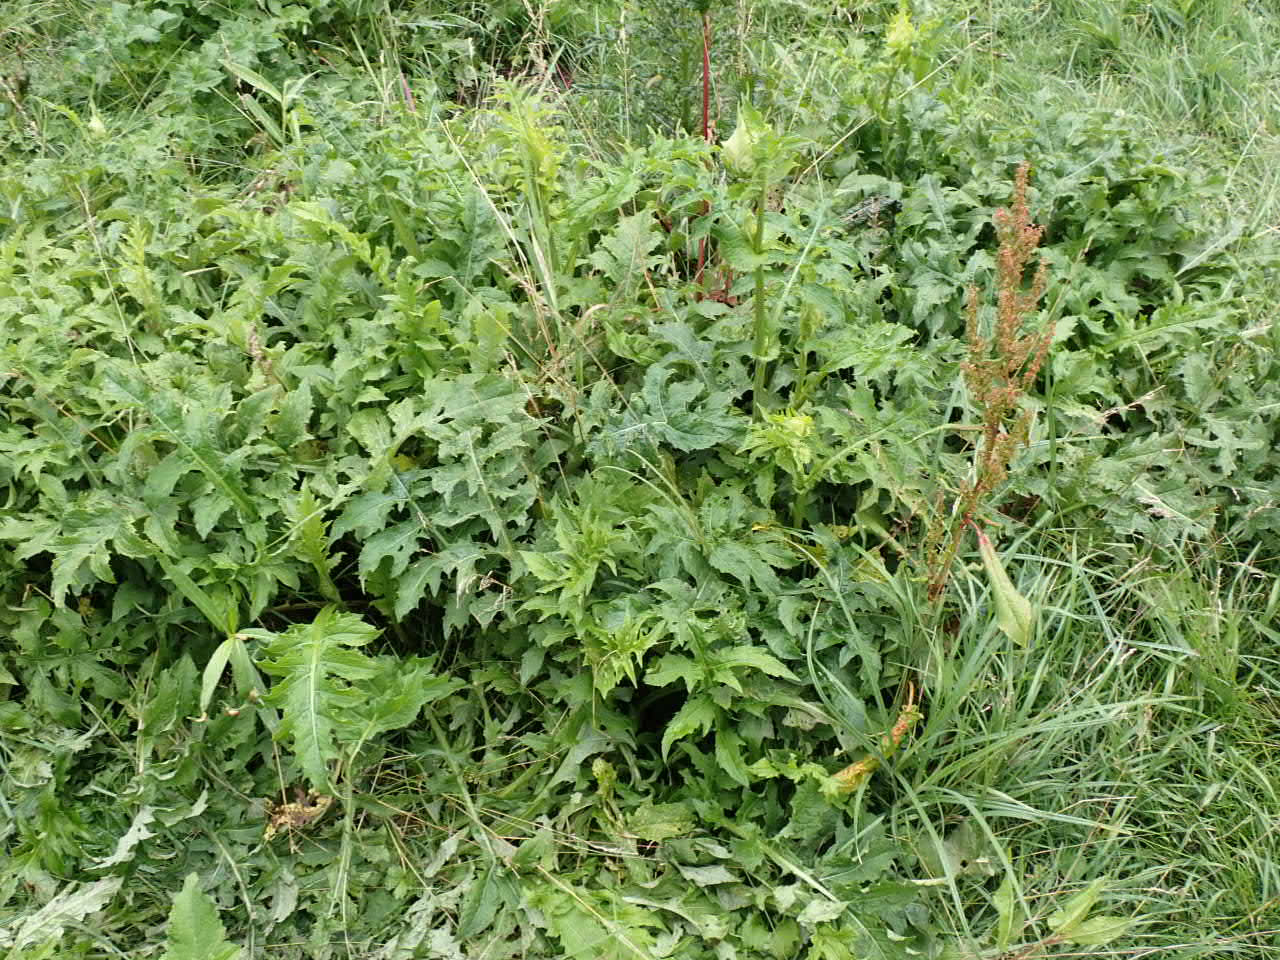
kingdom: Plantae
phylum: Tracheophyta
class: Magnoliopsida
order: Asterales
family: Asteraceae
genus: Cirsium
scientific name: Cirsium oleraceum
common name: Kål-tidsel
